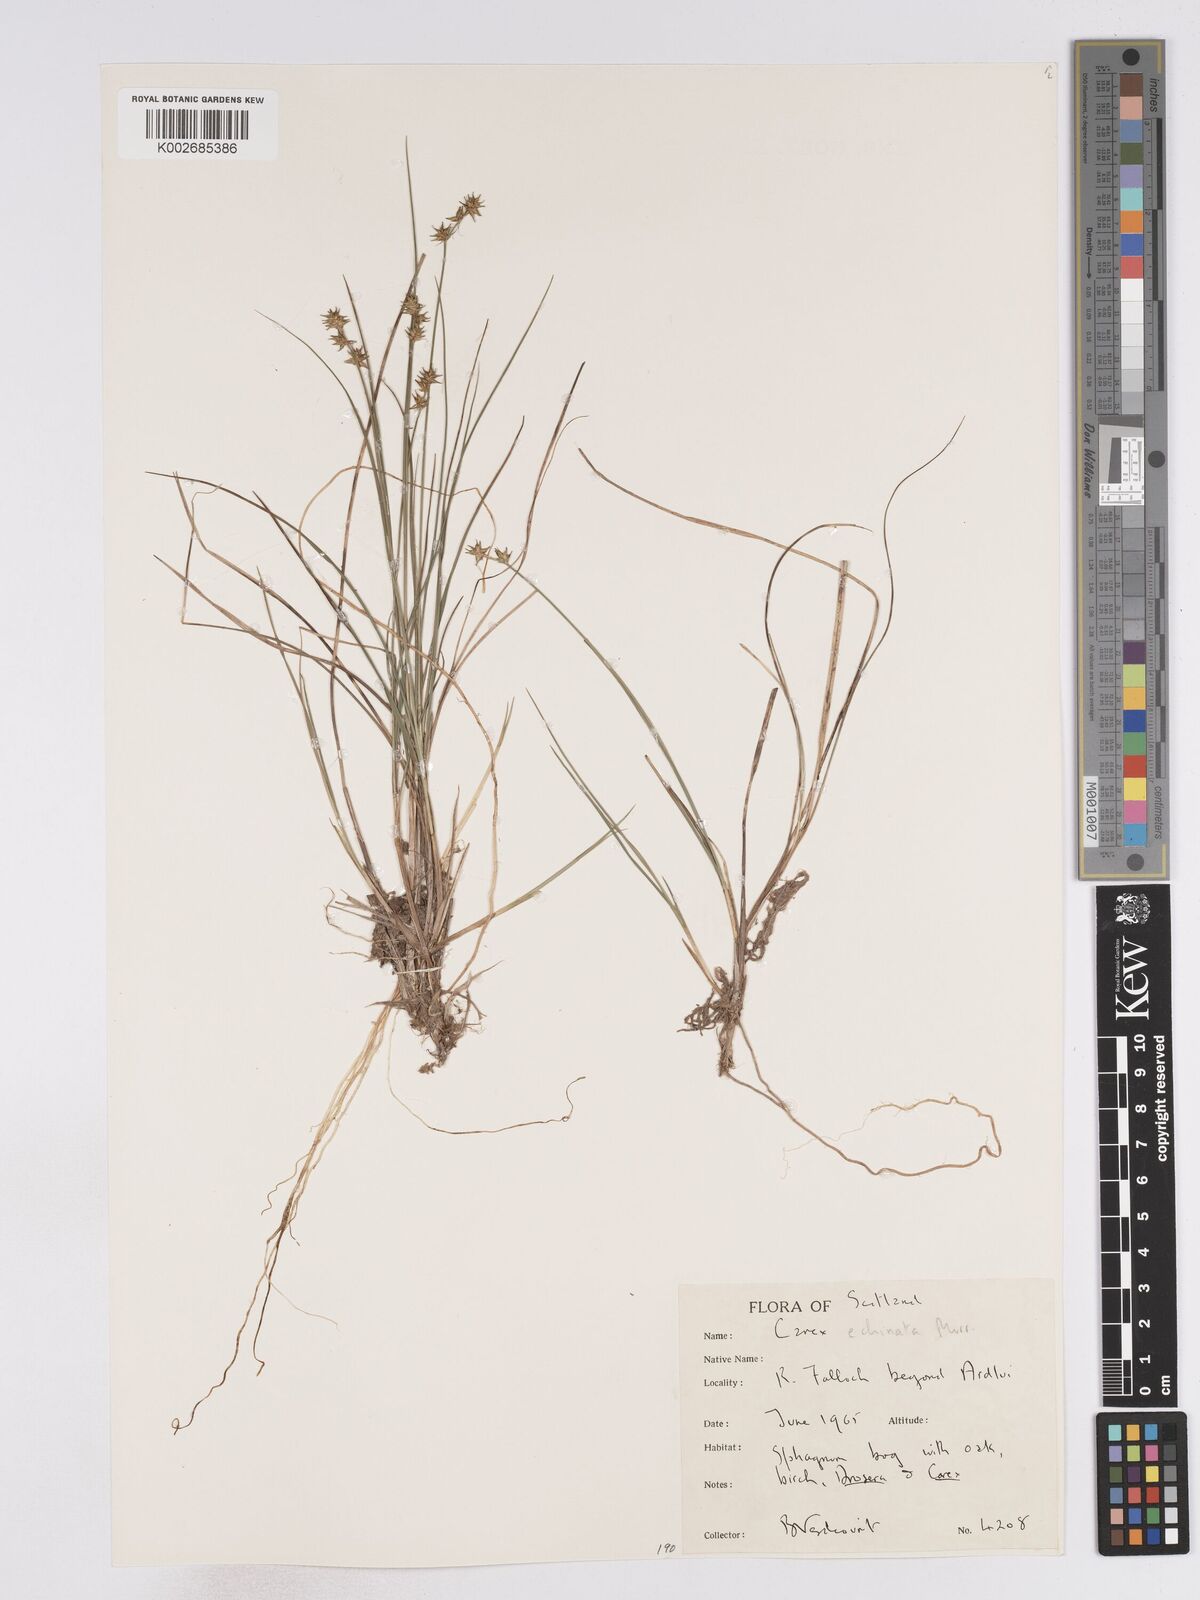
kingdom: Plantae
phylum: Tracheophyta
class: Liliopsida
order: Poales
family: Cyperaceae
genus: Carex
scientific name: Carex echinata
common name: Star sedge
